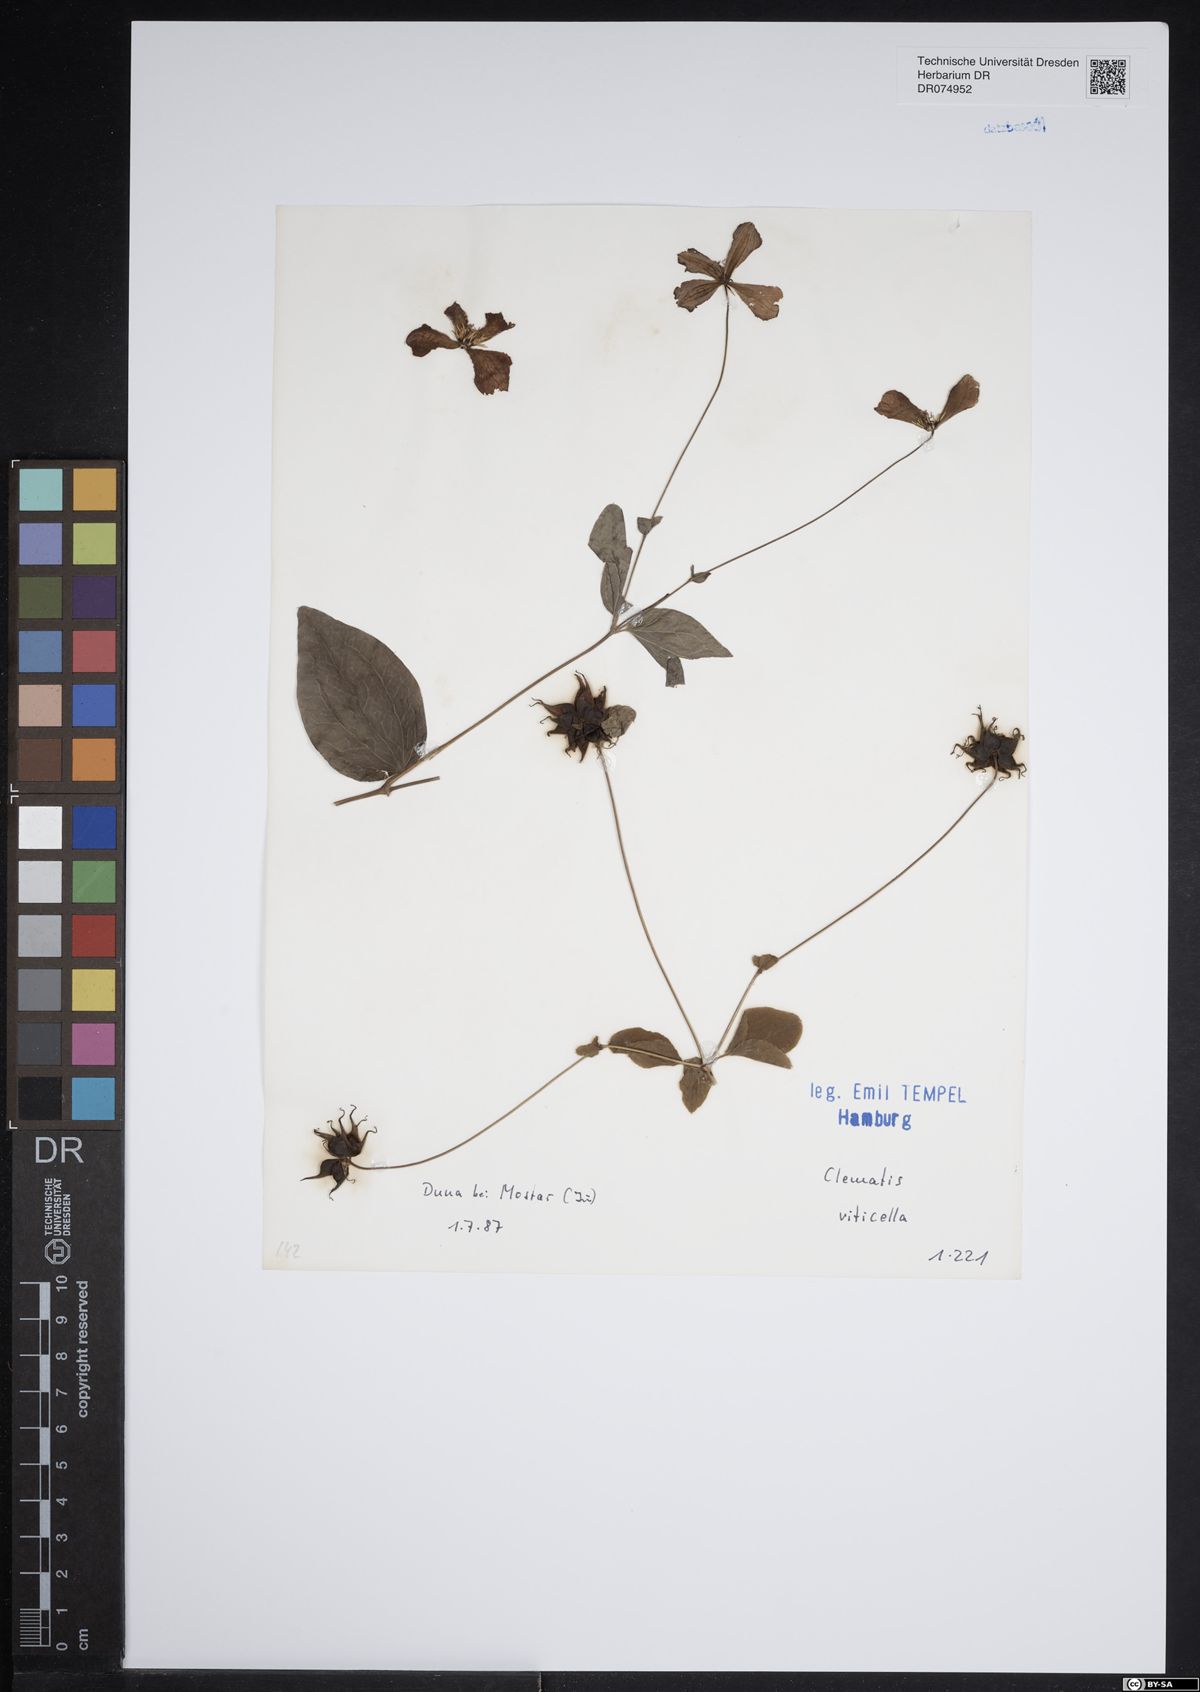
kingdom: Plantae
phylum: Tracheophyta
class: Magnoliopsida
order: Ranunculales
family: Ranunculaceae
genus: Clematis
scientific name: Clematis viticella
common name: Purple clematis
